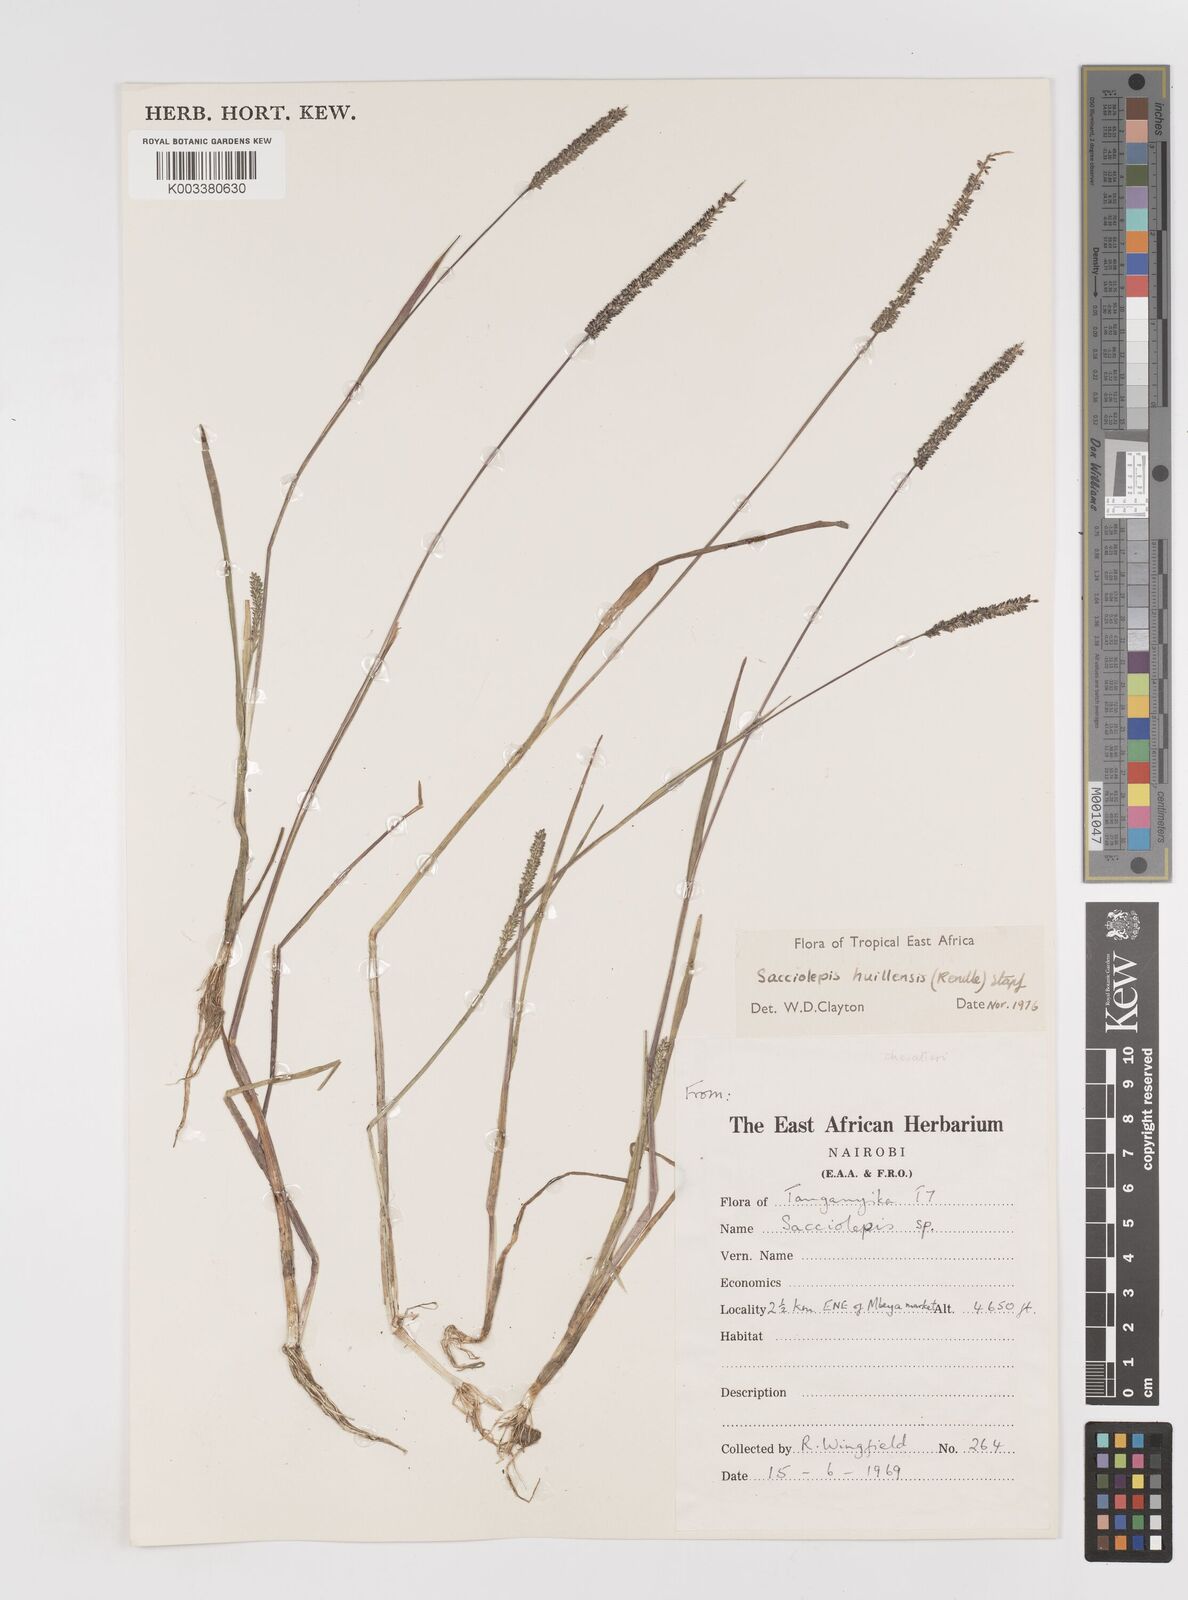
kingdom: Plantae
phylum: Tracheophyta
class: Liliopsida
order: Poales
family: Poaceae
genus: Sacciolepis
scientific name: Sacciolepis myosuroides
